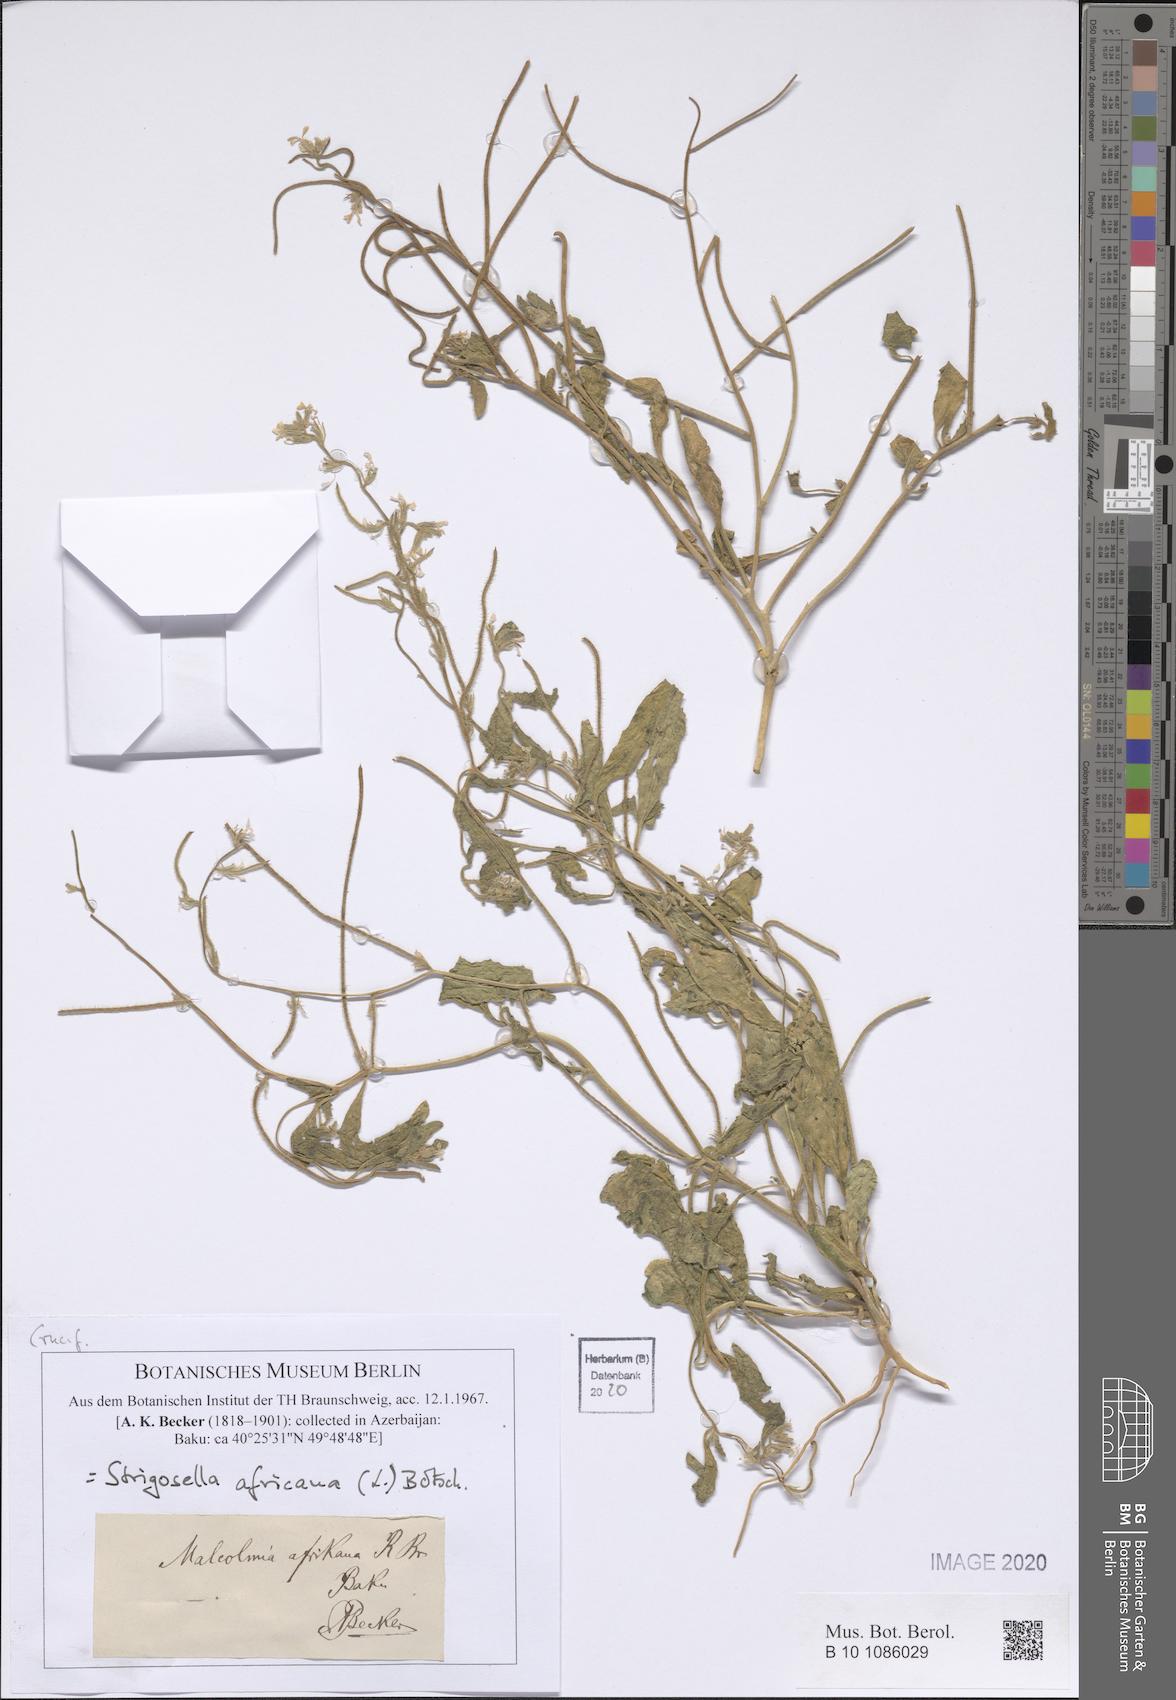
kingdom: Plantae
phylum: Tracheophyta
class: Magnoliopsida
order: Brassicales
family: Brassicaceae
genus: Strigosella
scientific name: Strigosella africana
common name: African mustard
